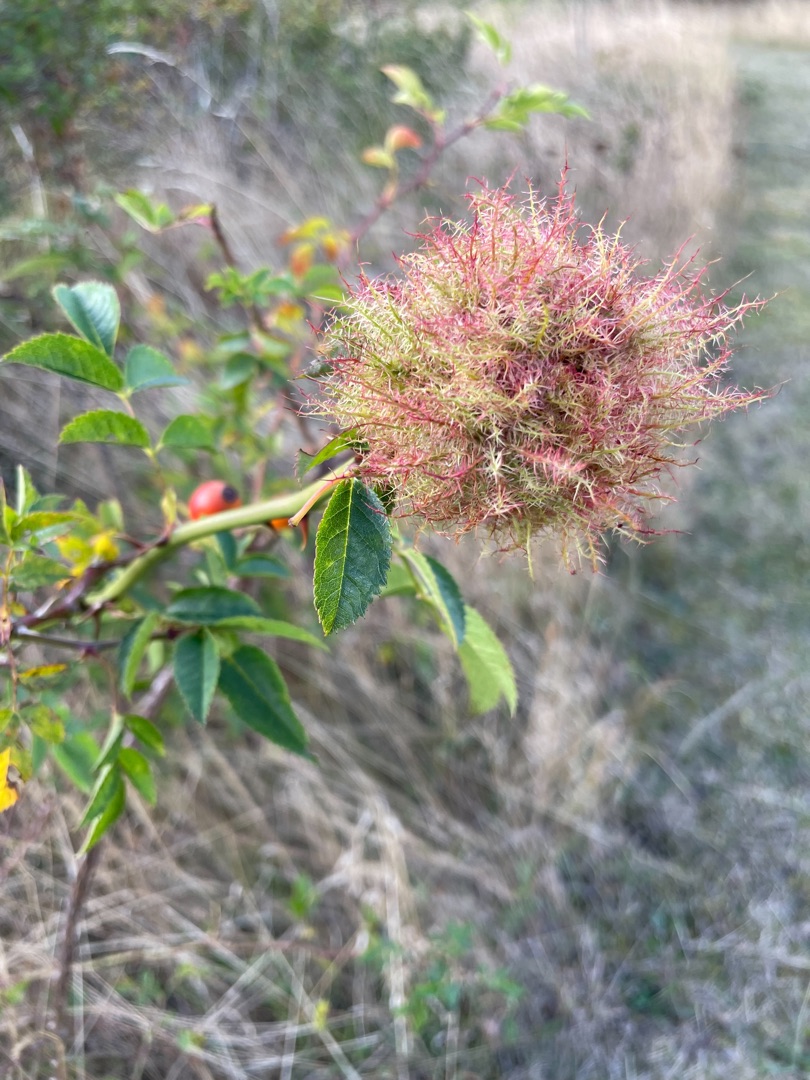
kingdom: Animalia
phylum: Arthropoda
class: Insecta
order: Hymenoptera
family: Cynipidae
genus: Diplolepis
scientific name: Diplolepis rosae
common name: Bedeguargalhveps
